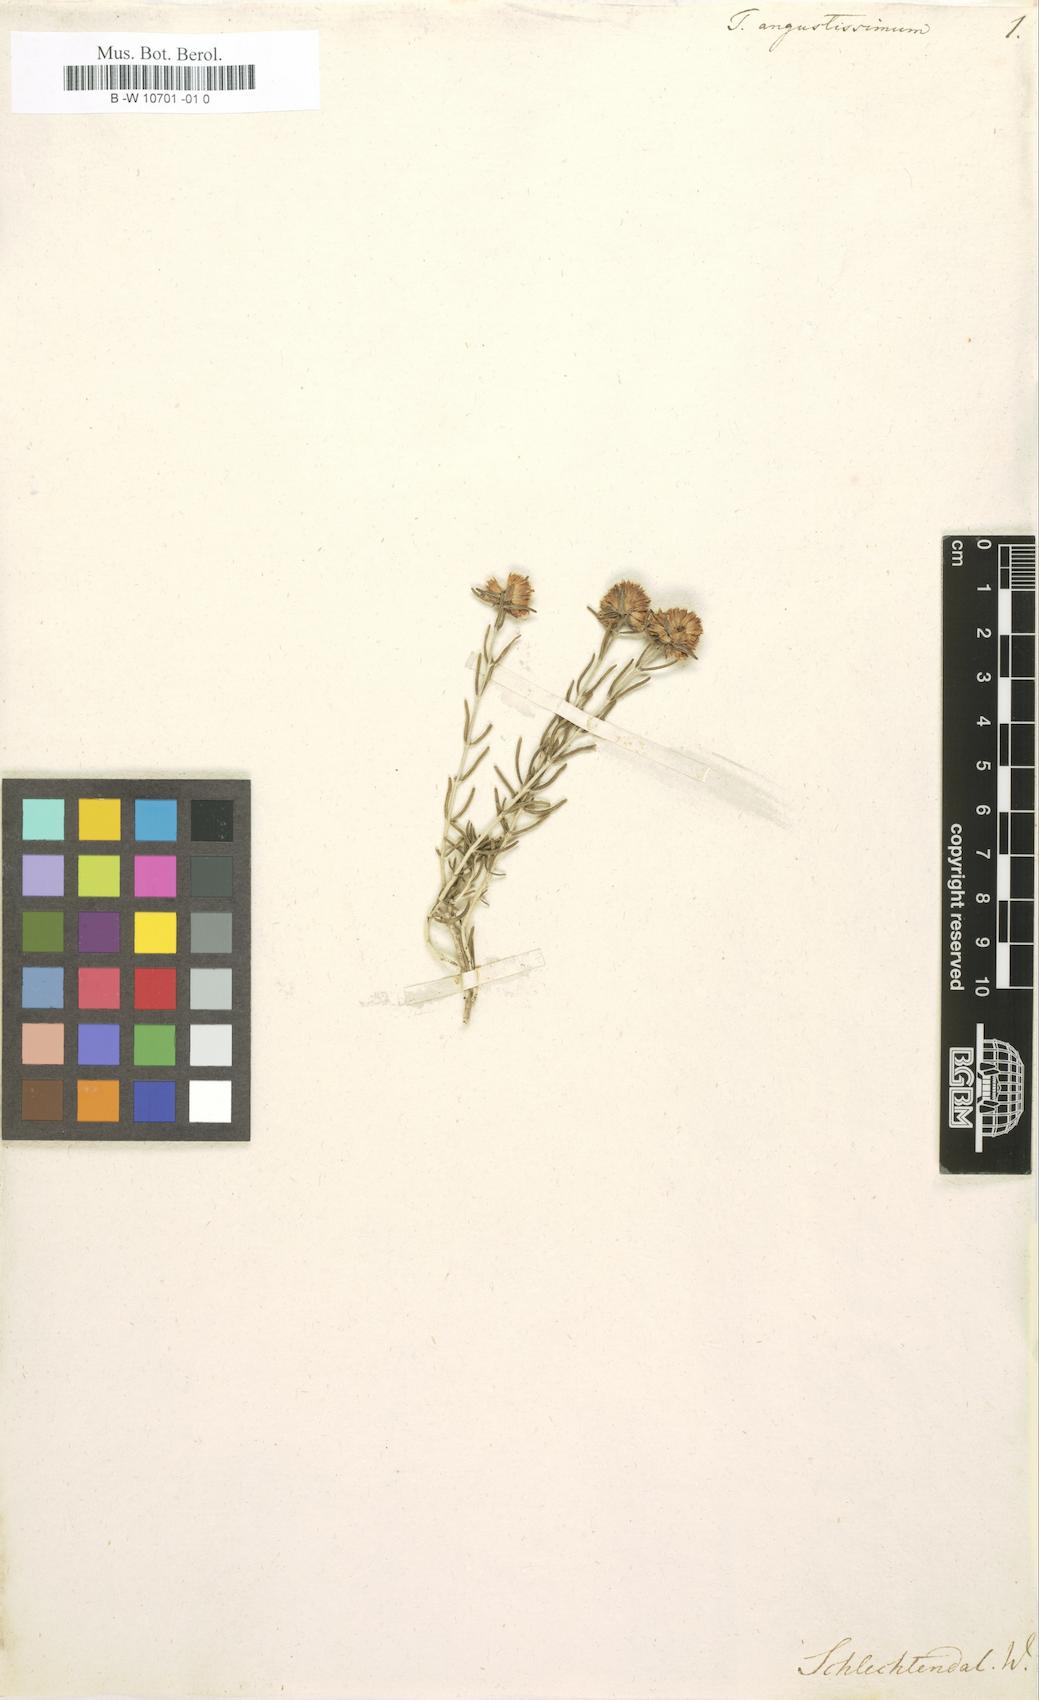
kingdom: Plantae
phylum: Tracheophyta
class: Magnoliopsida
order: Lamiales
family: Lamiaceae
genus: Teucrium
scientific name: Teucrium angustissimum
